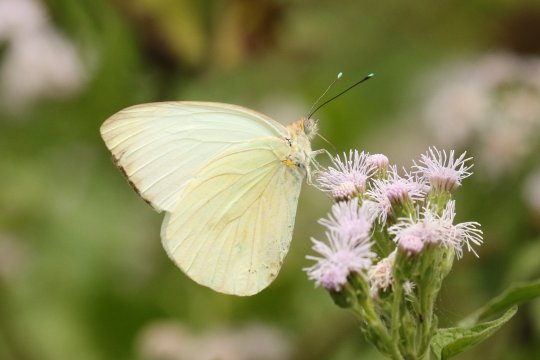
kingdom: Animalia
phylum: Arthropoda
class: Insecta
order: Lepidoptera
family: Pieridae
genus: Ascia
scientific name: Ascia monuste
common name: Great Southern White
